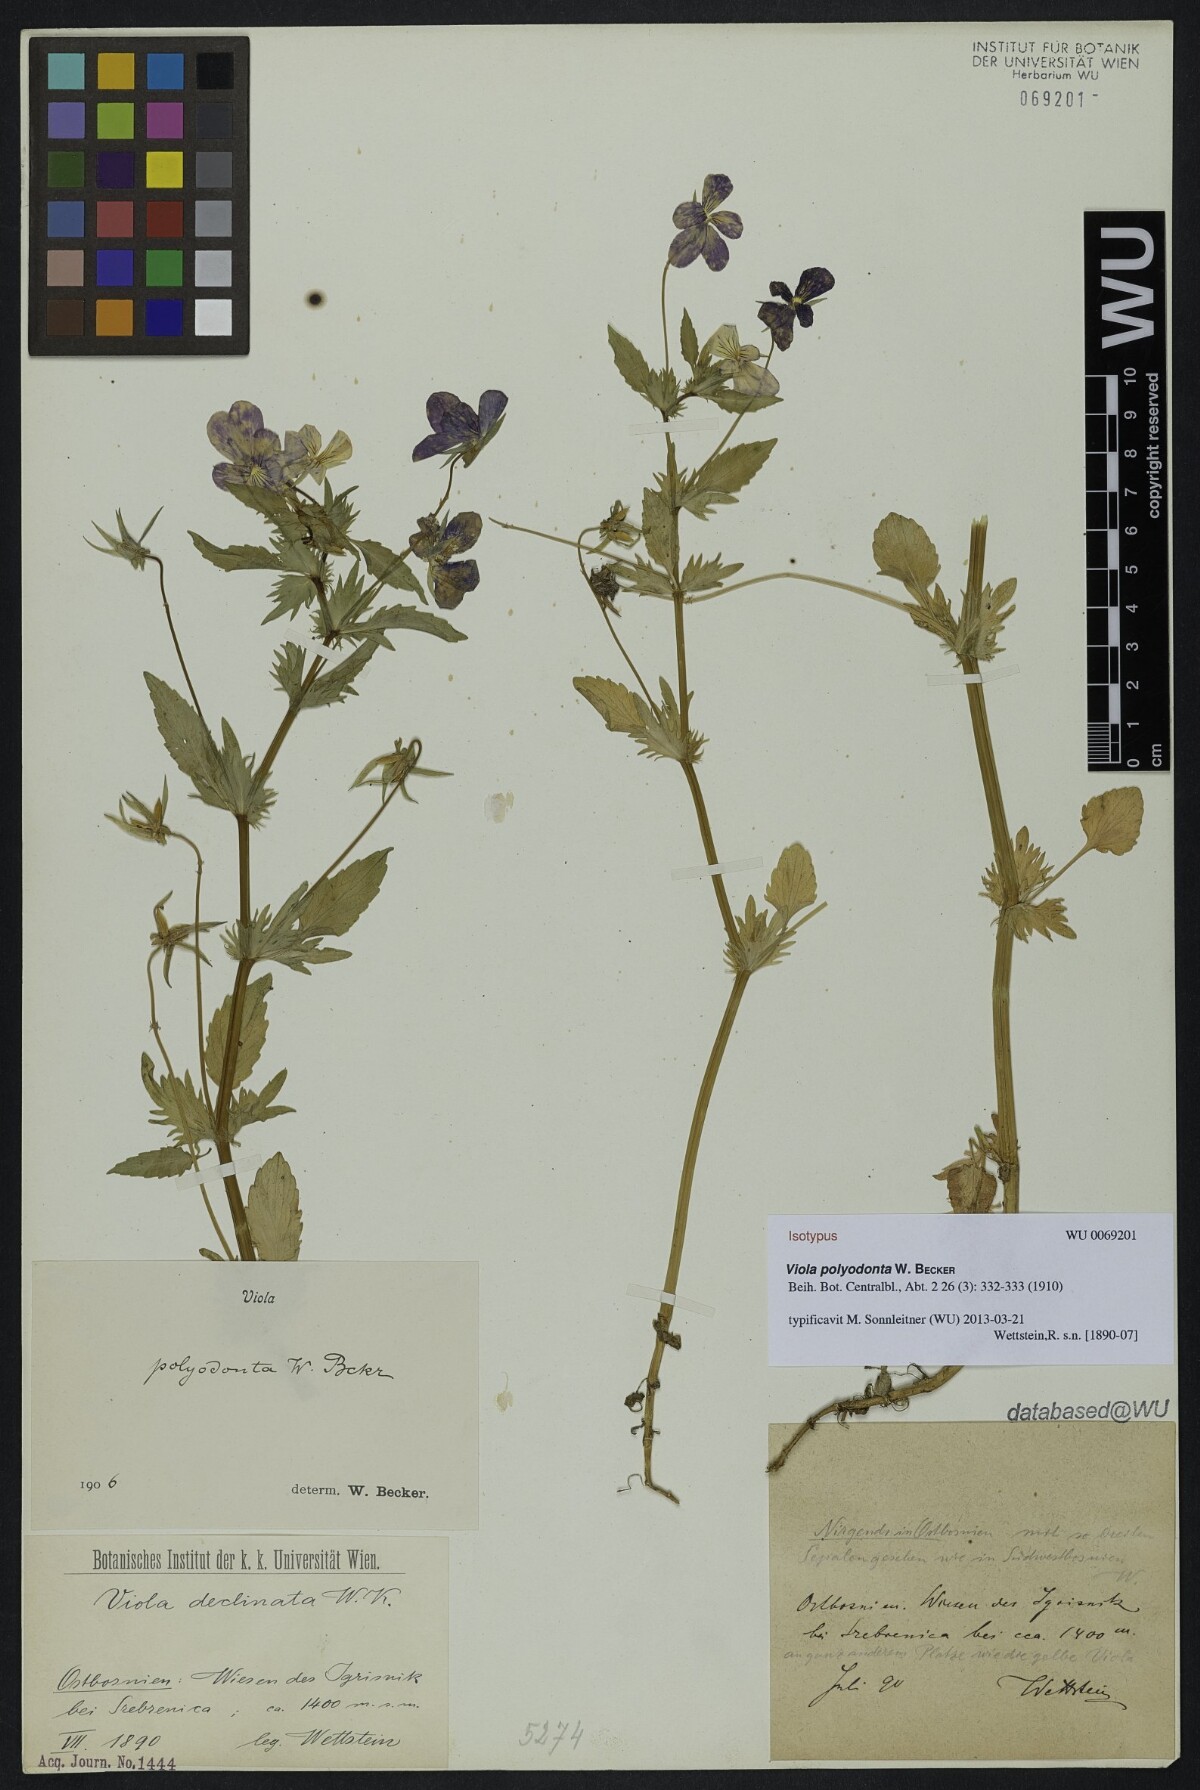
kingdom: Plantae
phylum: Tracheophyta
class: Magnoliopsida
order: Malpighiales
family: Violaceae
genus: Viola
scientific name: Viola dacica
